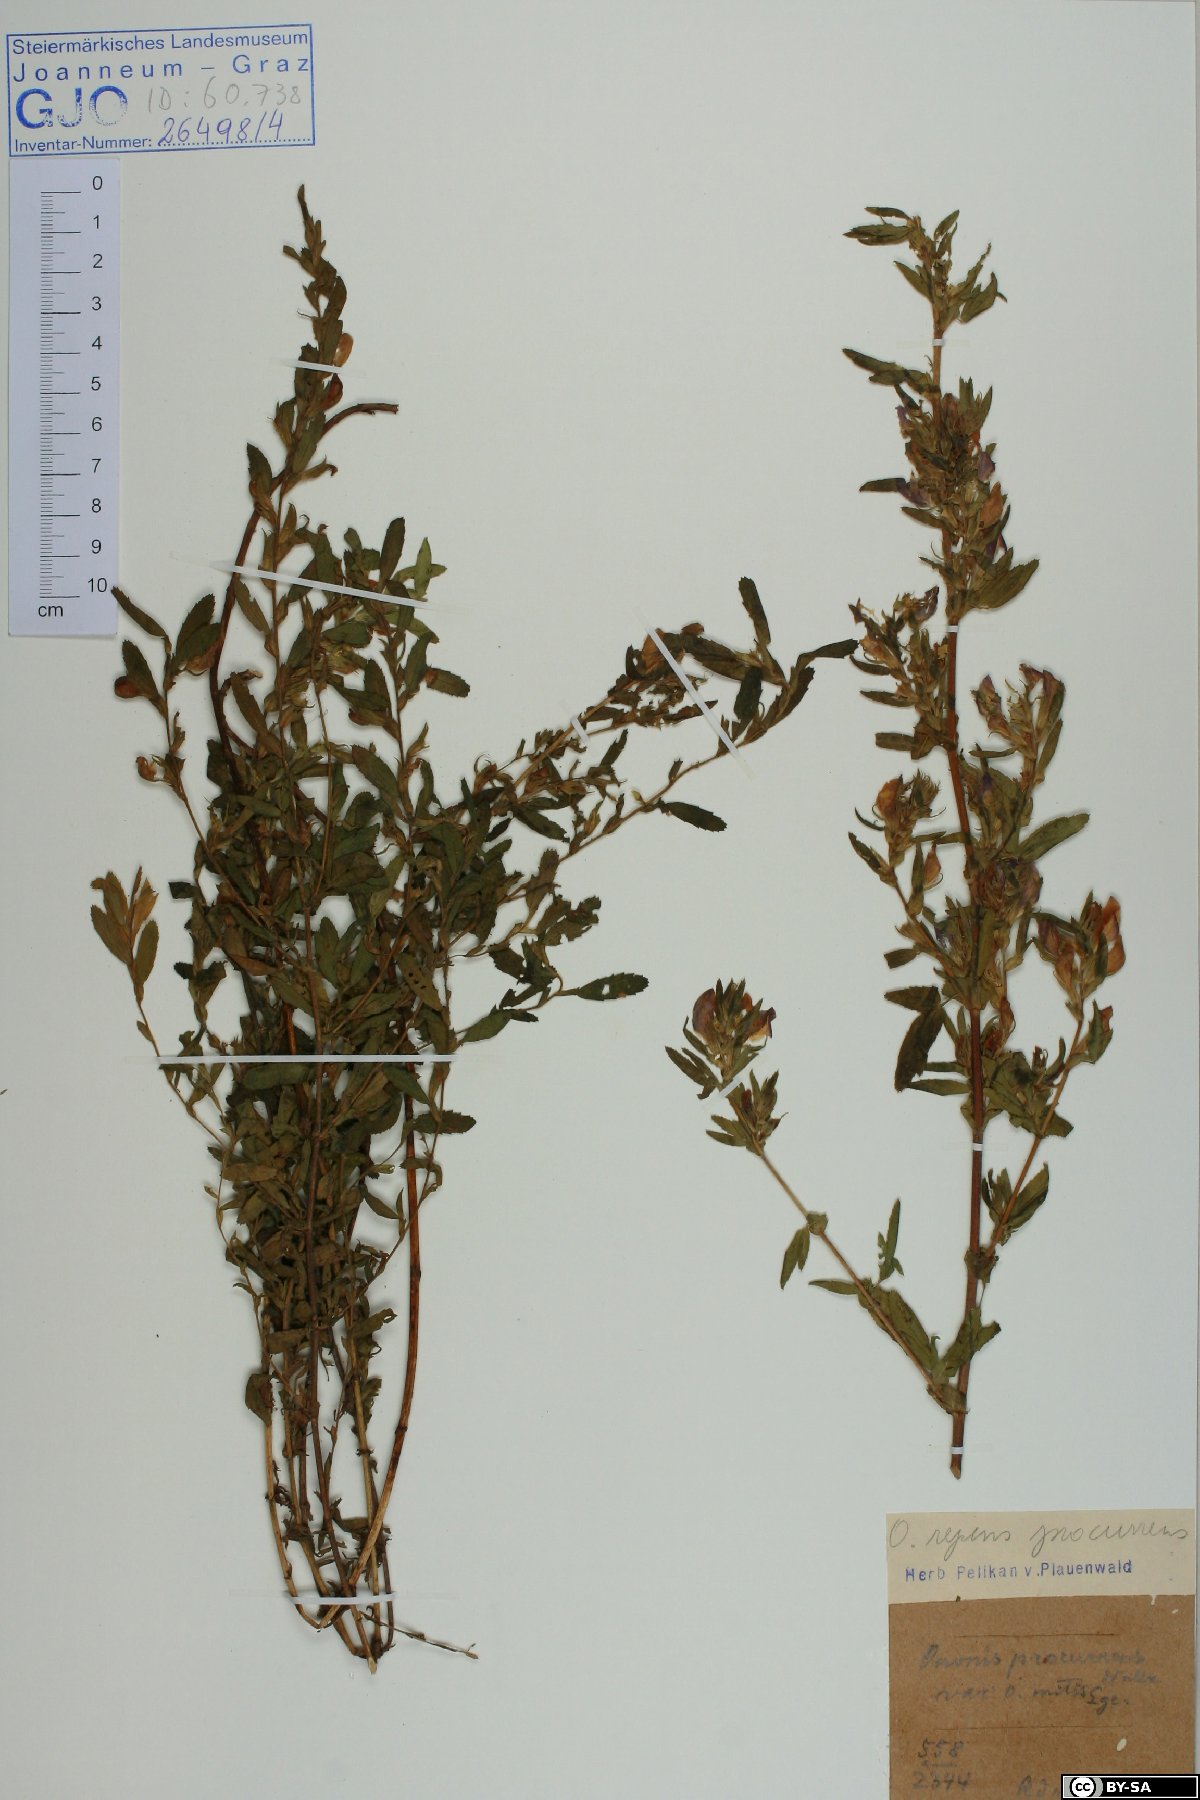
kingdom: Plantae
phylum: Tracheophyta
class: Magnoliopsida
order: Fabales
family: Fabaceae
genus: Ononis
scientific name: Ononis spinosa
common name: Spiny restharrow
